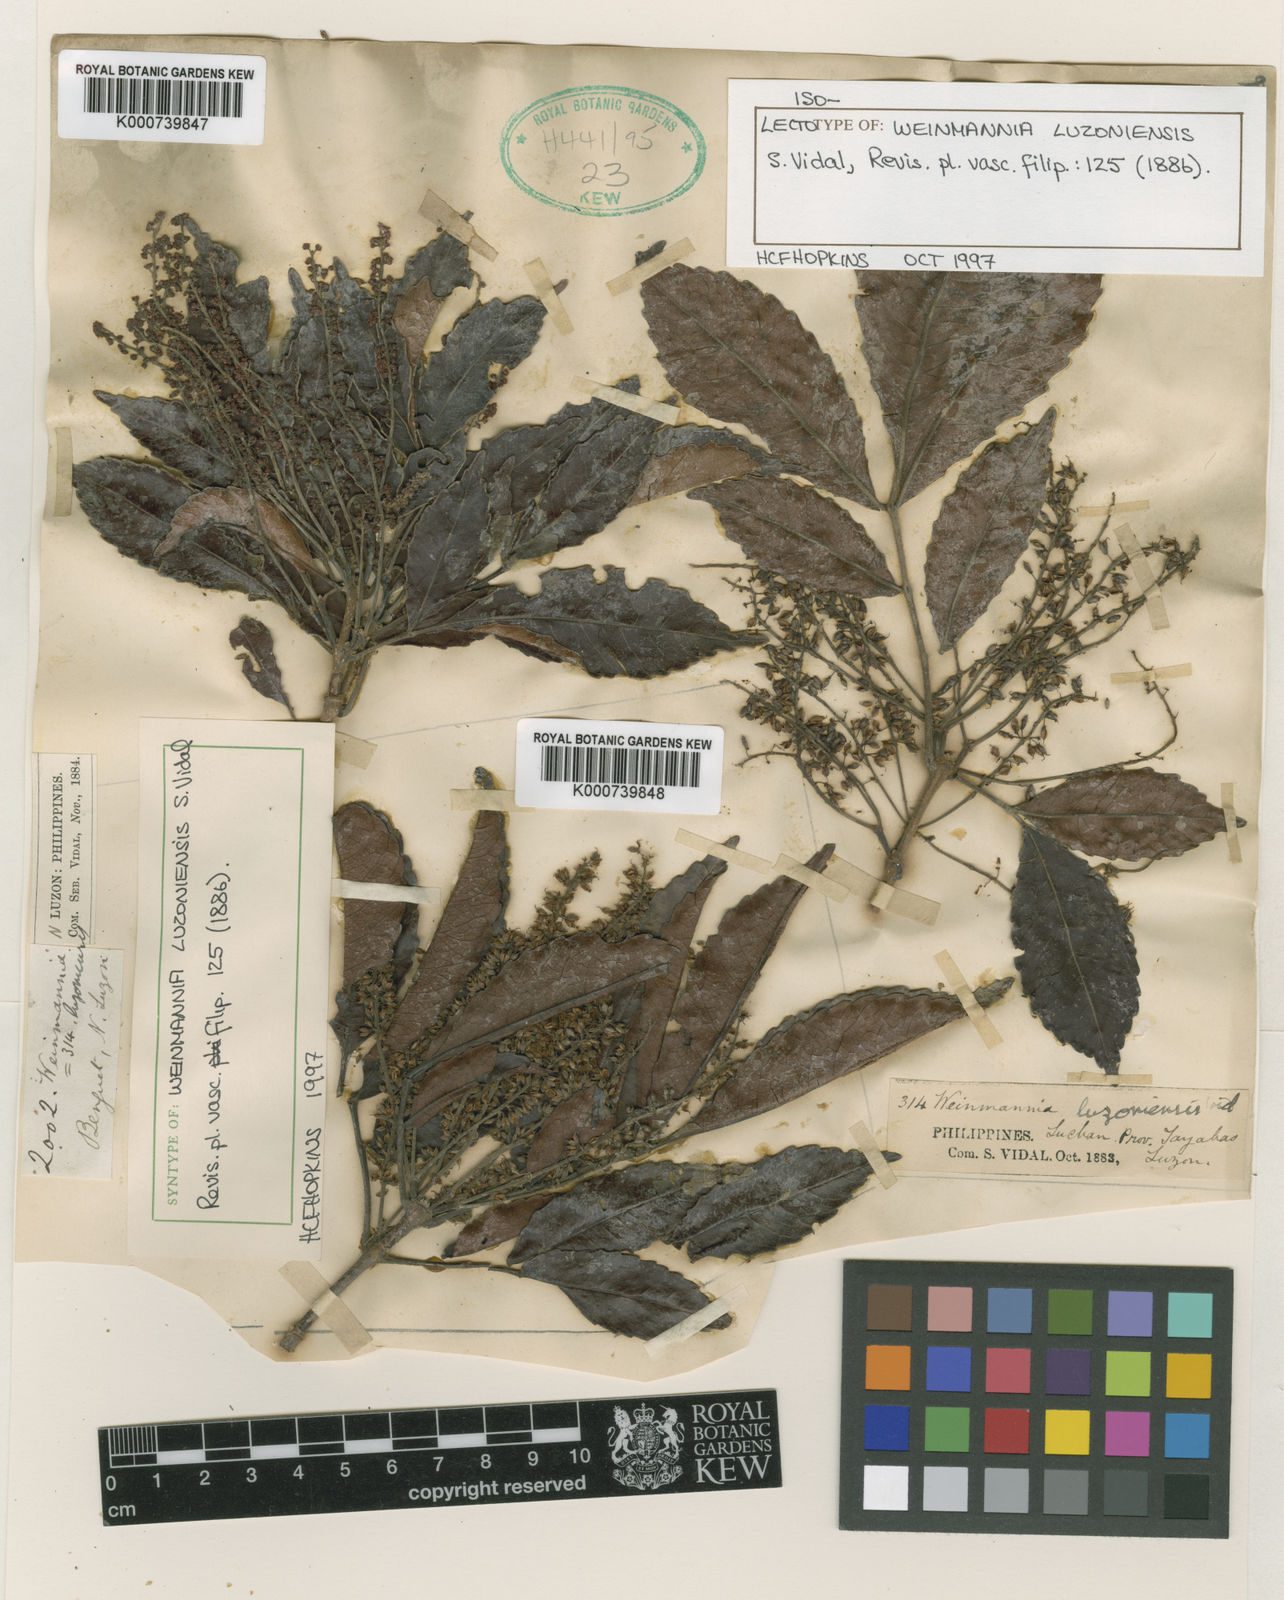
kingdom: Plantae
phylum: Tracheophyta
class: Magnoliopsida
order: Oxalidales
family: Cunoniaceae
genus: Pterophylla
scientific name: Pterophylla luzoniensis
